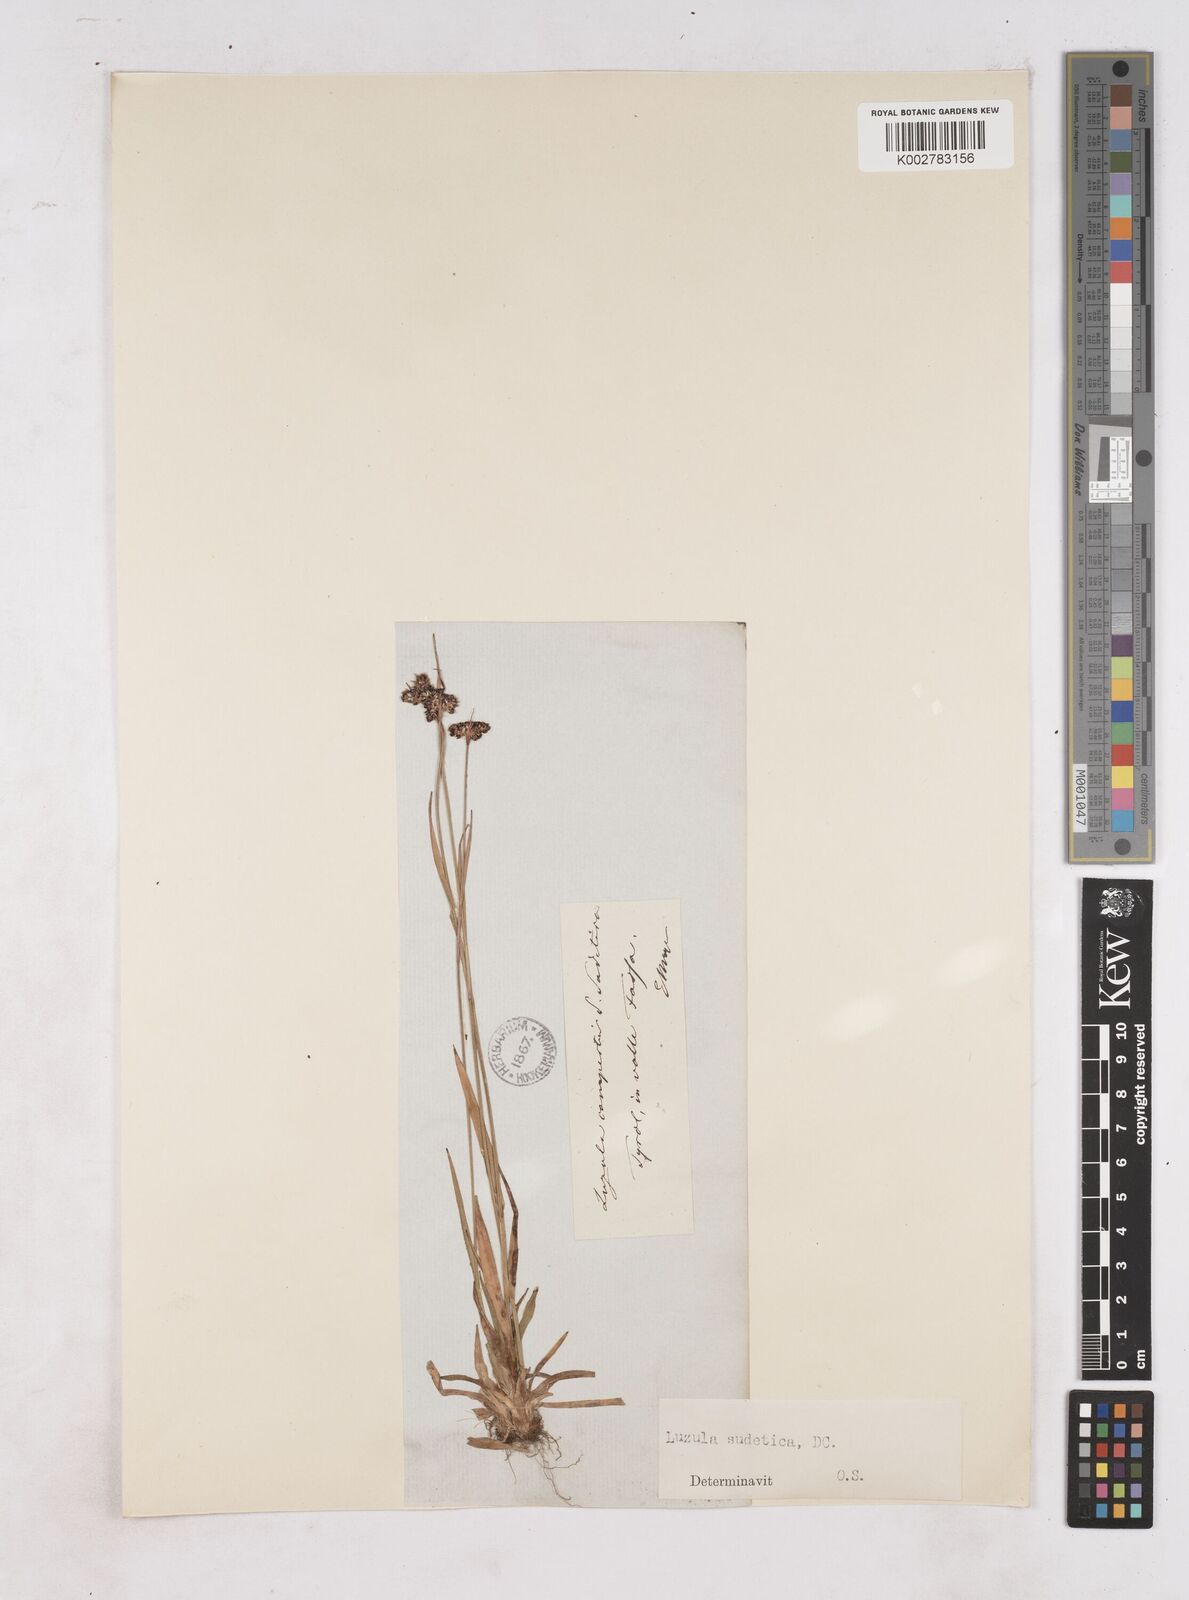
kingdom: Plantae
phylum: Tracheophyta
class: Liliopsida
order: Poales
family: Juncaceae
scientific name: Juncaceae
